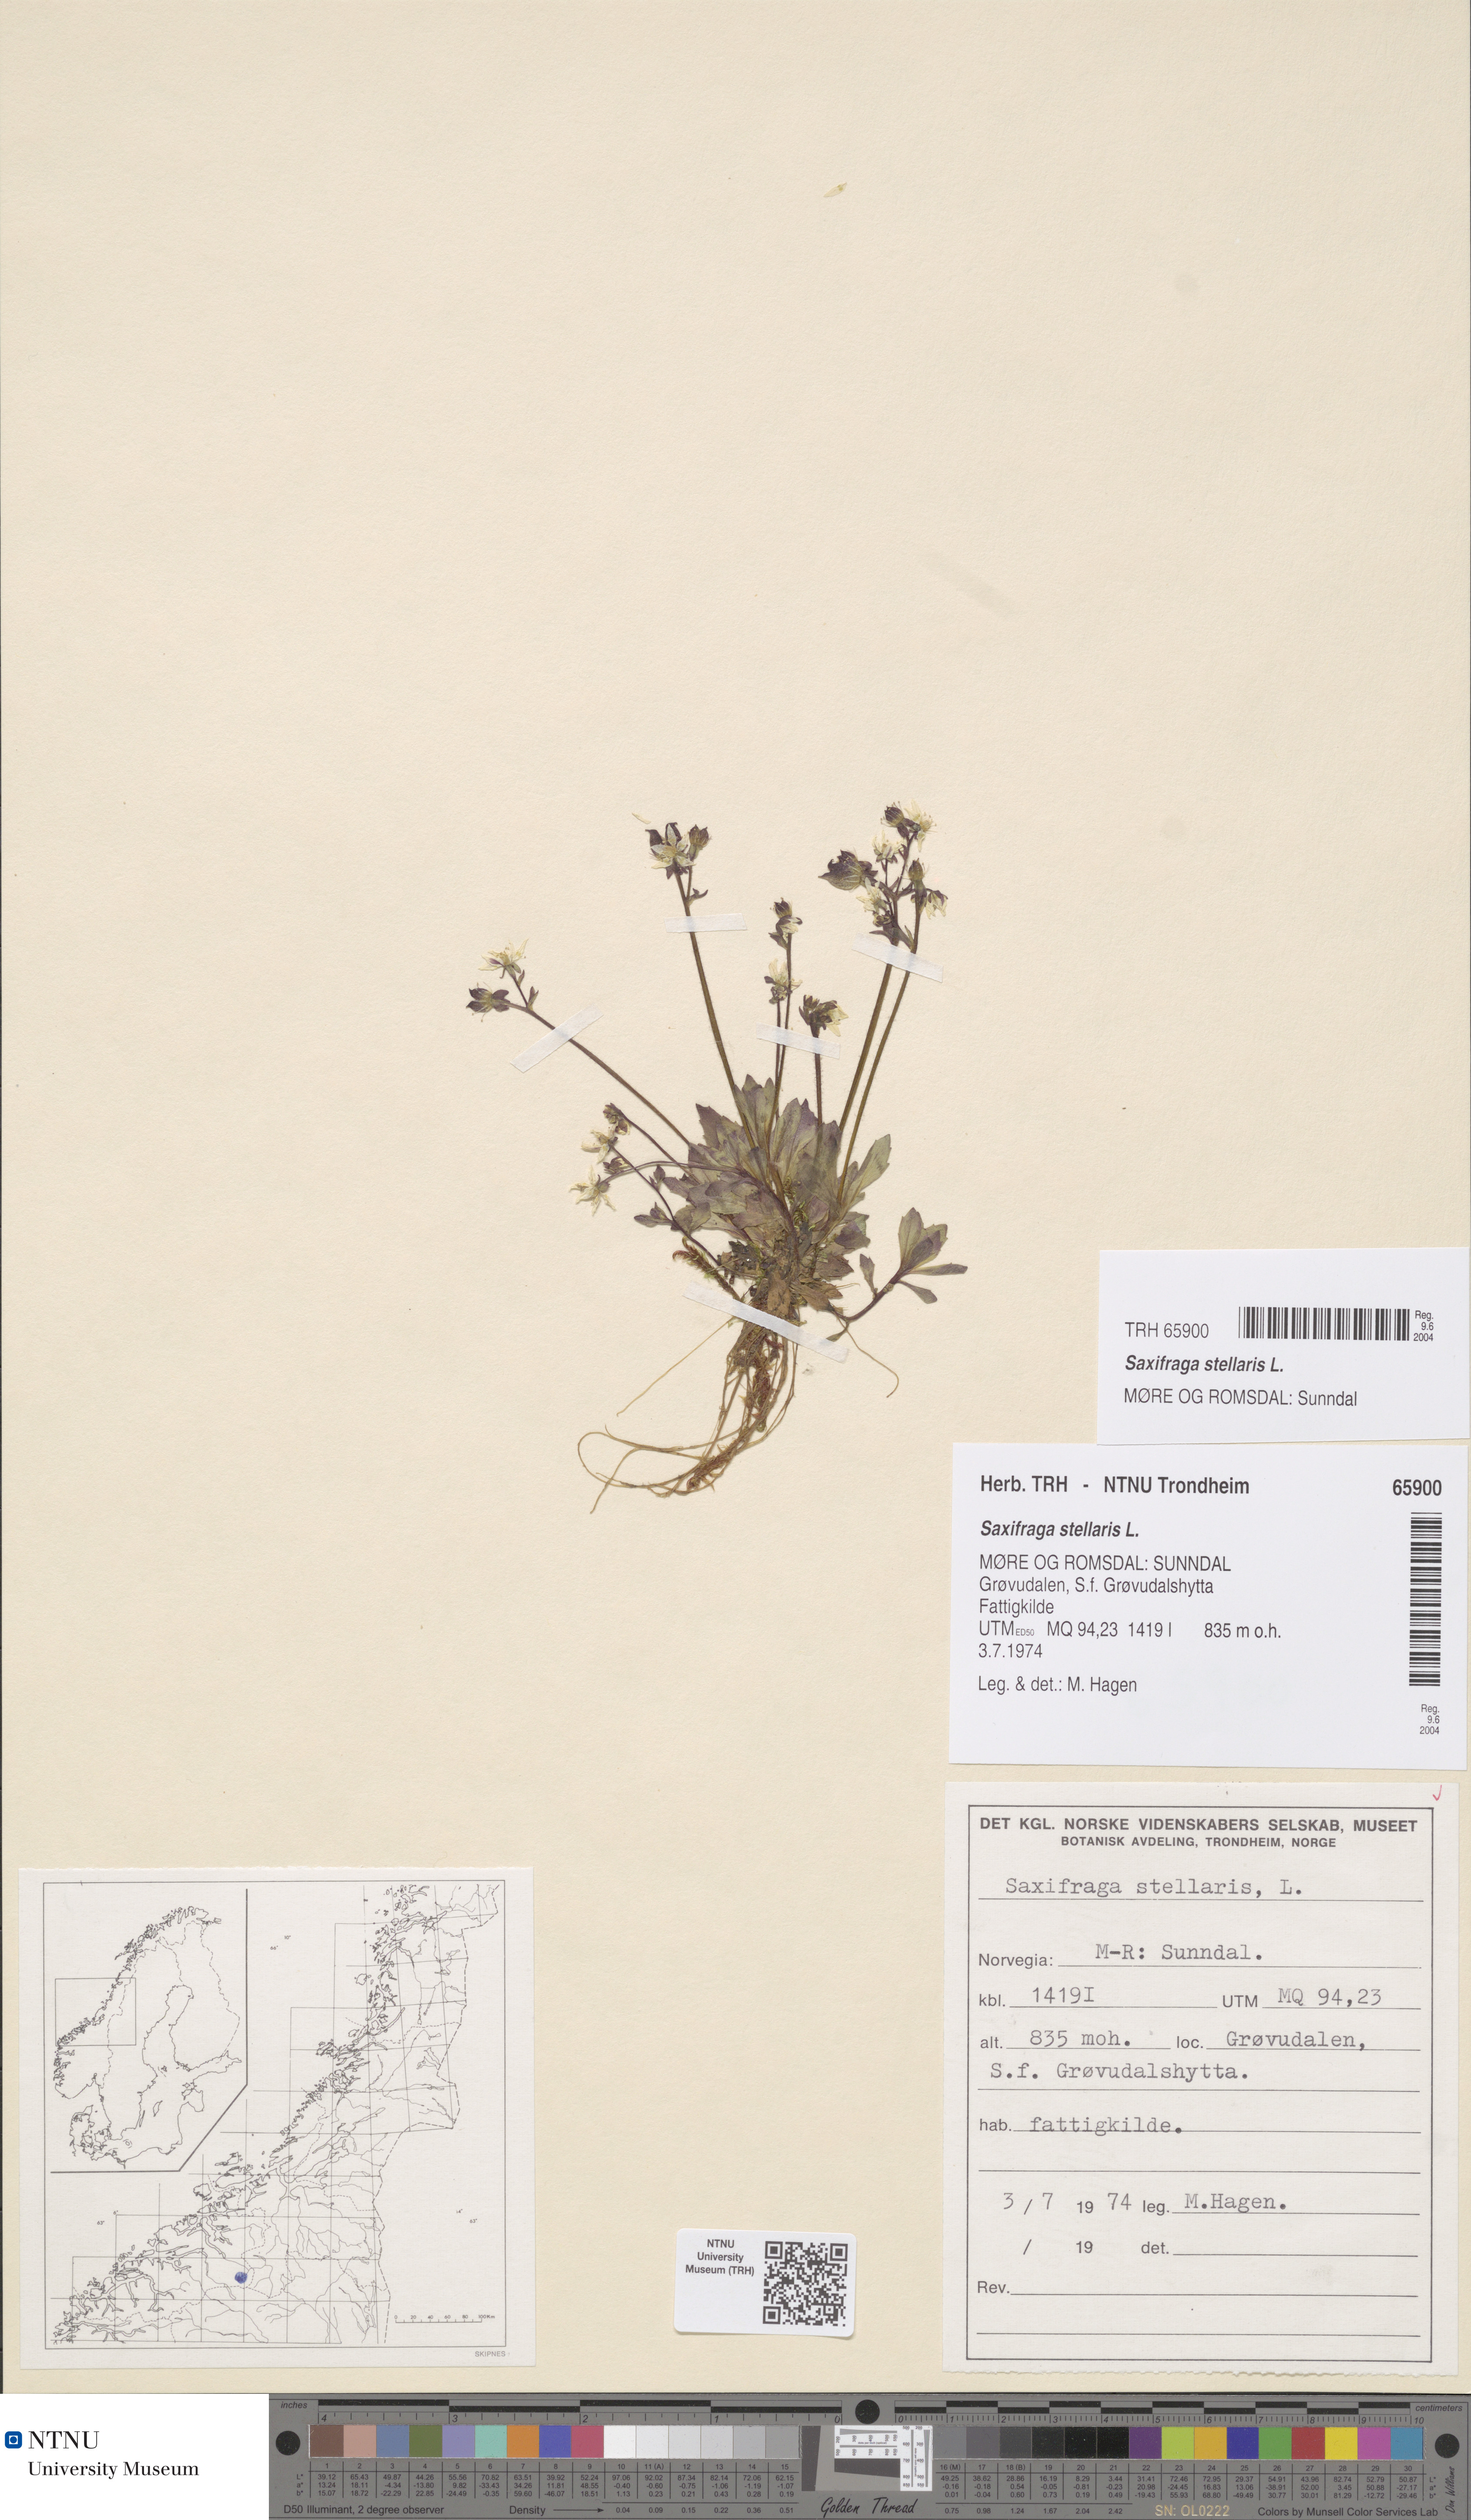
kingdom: Plantae
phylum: Tracheophyta
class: Magnoliopsida
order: Saxifragales
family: Saxifragaceae
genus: Micranthes
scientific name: Micranthes stellaris
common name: Starry saxifrage
